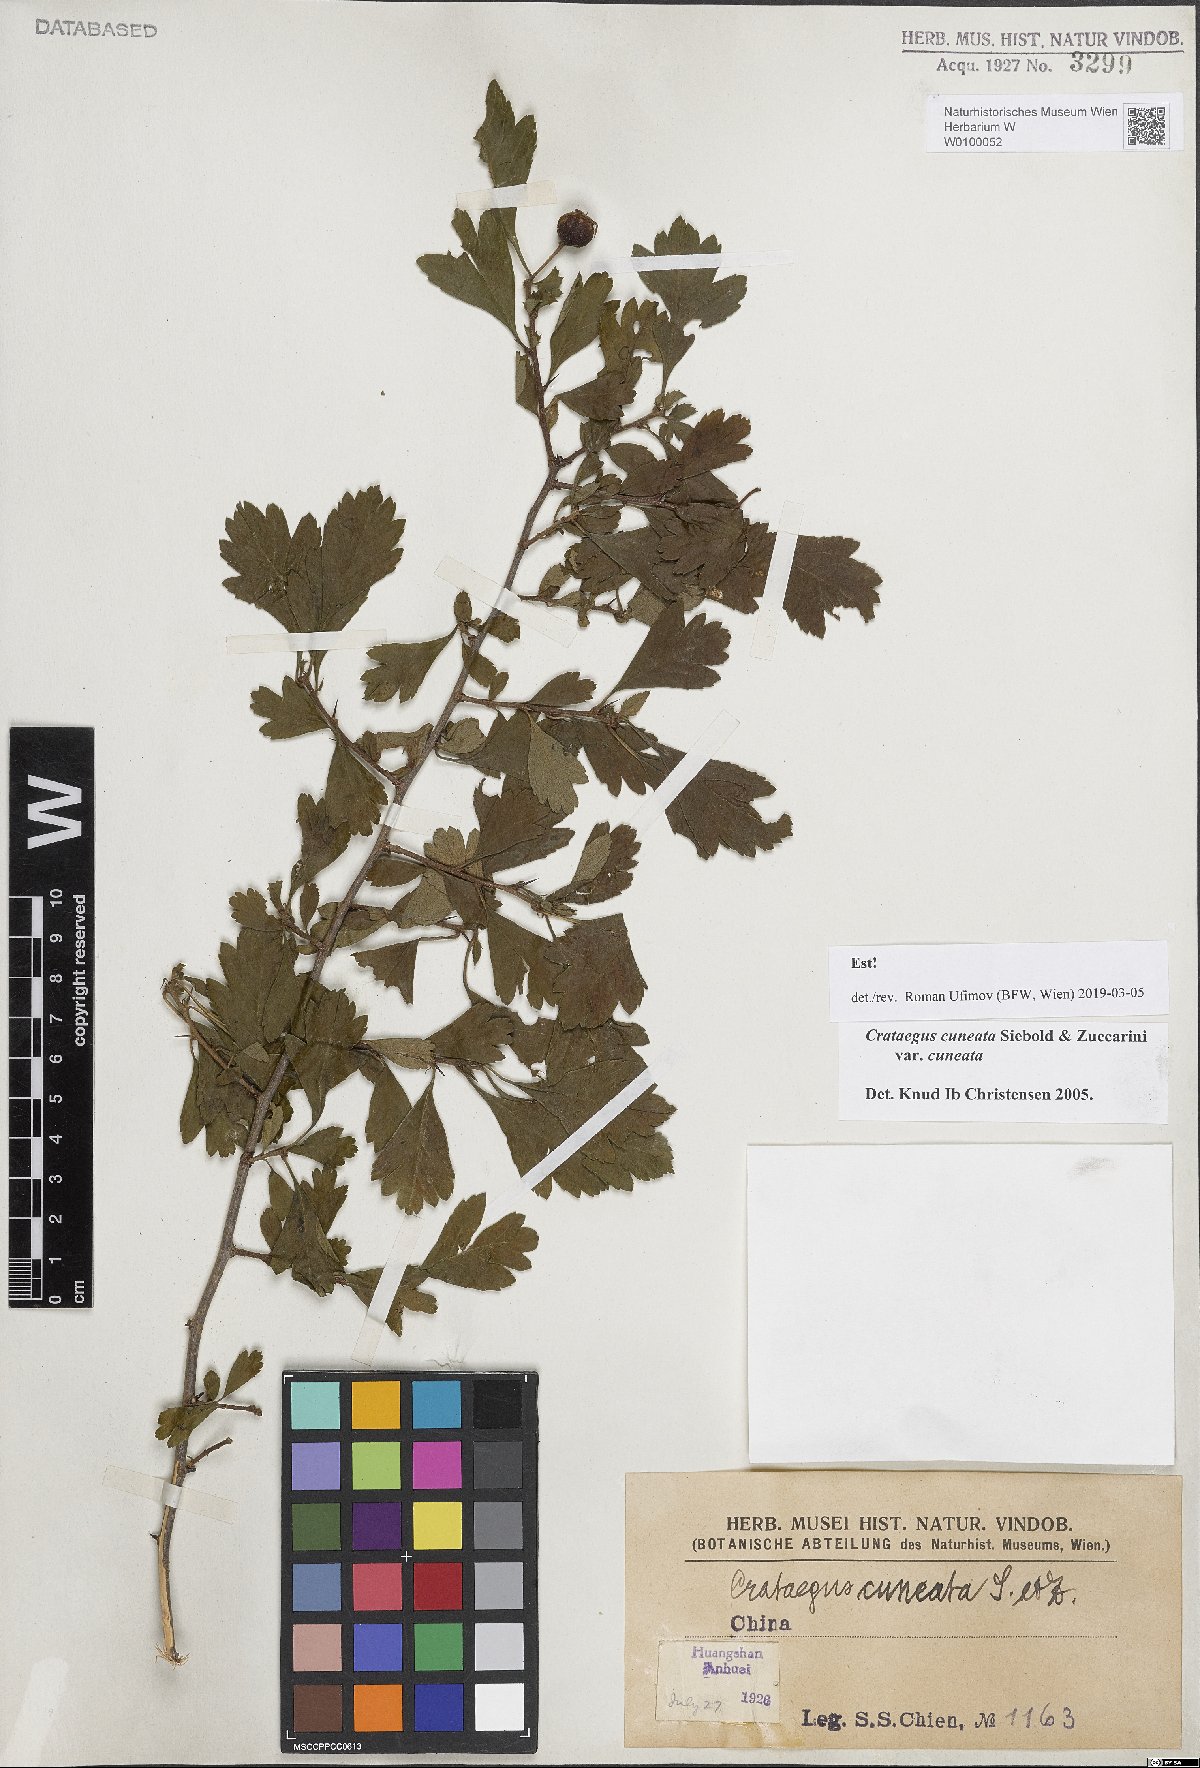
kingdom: Plantae
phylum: Tracheophyta
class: Magnoliopsida
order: Rosales
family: Rosaceae
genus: Crataegus
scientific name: Crataegus cuneata
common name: Chinese hawthorn
